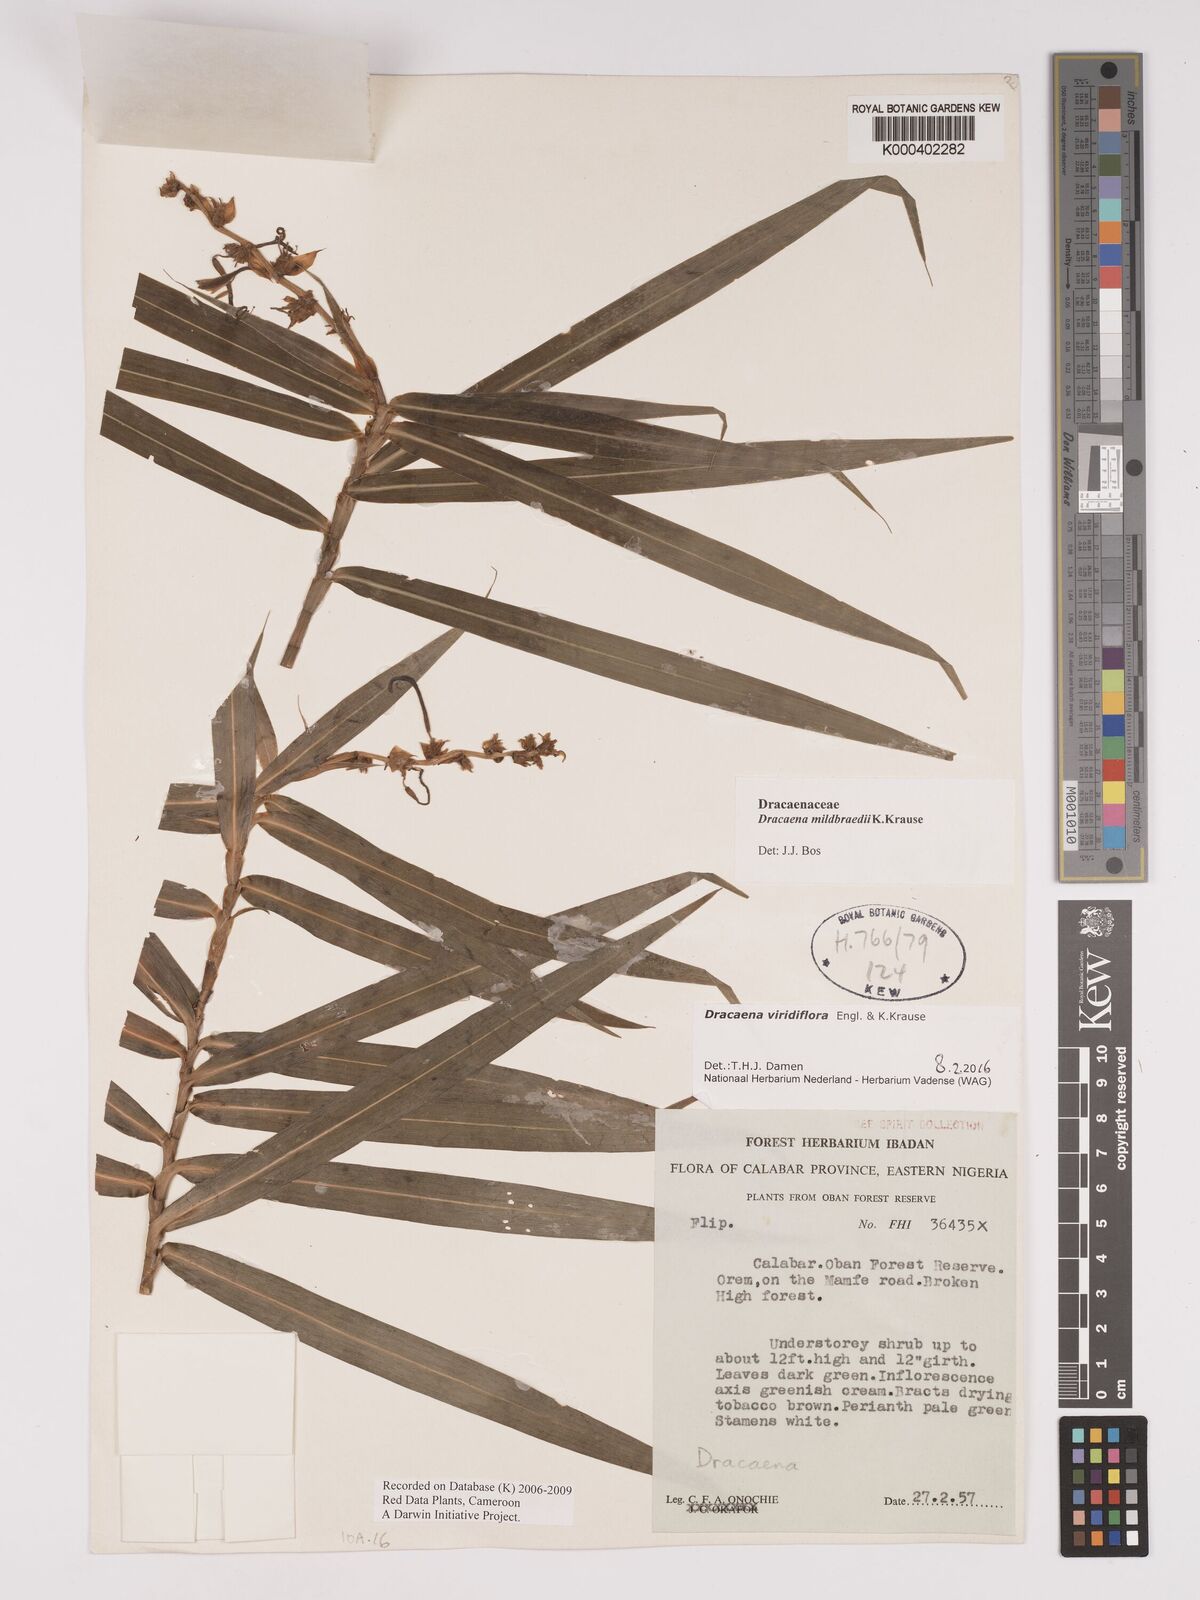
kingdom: Plantae
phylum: Tracheophyta
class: Liliopsida
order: Asparagales
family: Asparagaceae
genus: Dracaena
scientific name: Dracaena viridiflora
